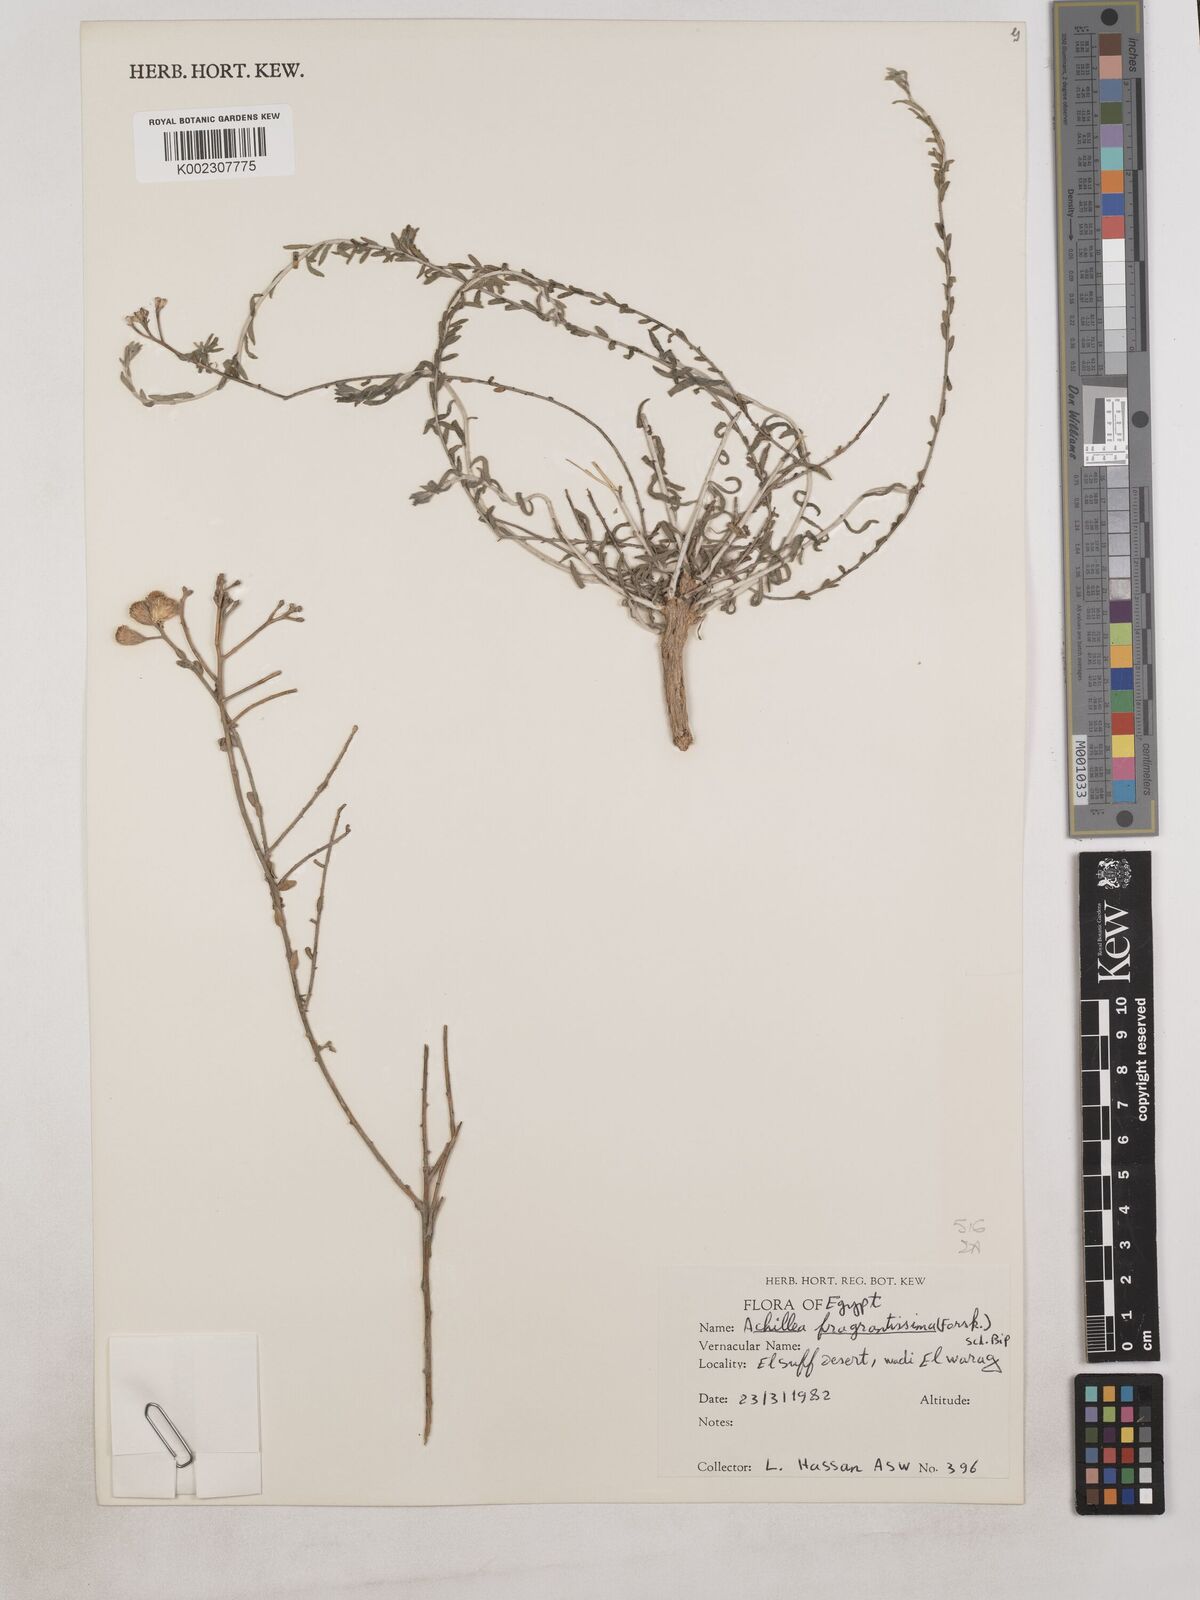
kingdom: Plantae
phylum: Tracheophyta
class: Magnoliopsida
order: Asterales
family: Asteraceae
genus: Achillea
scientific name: Achillea fragrantissima
